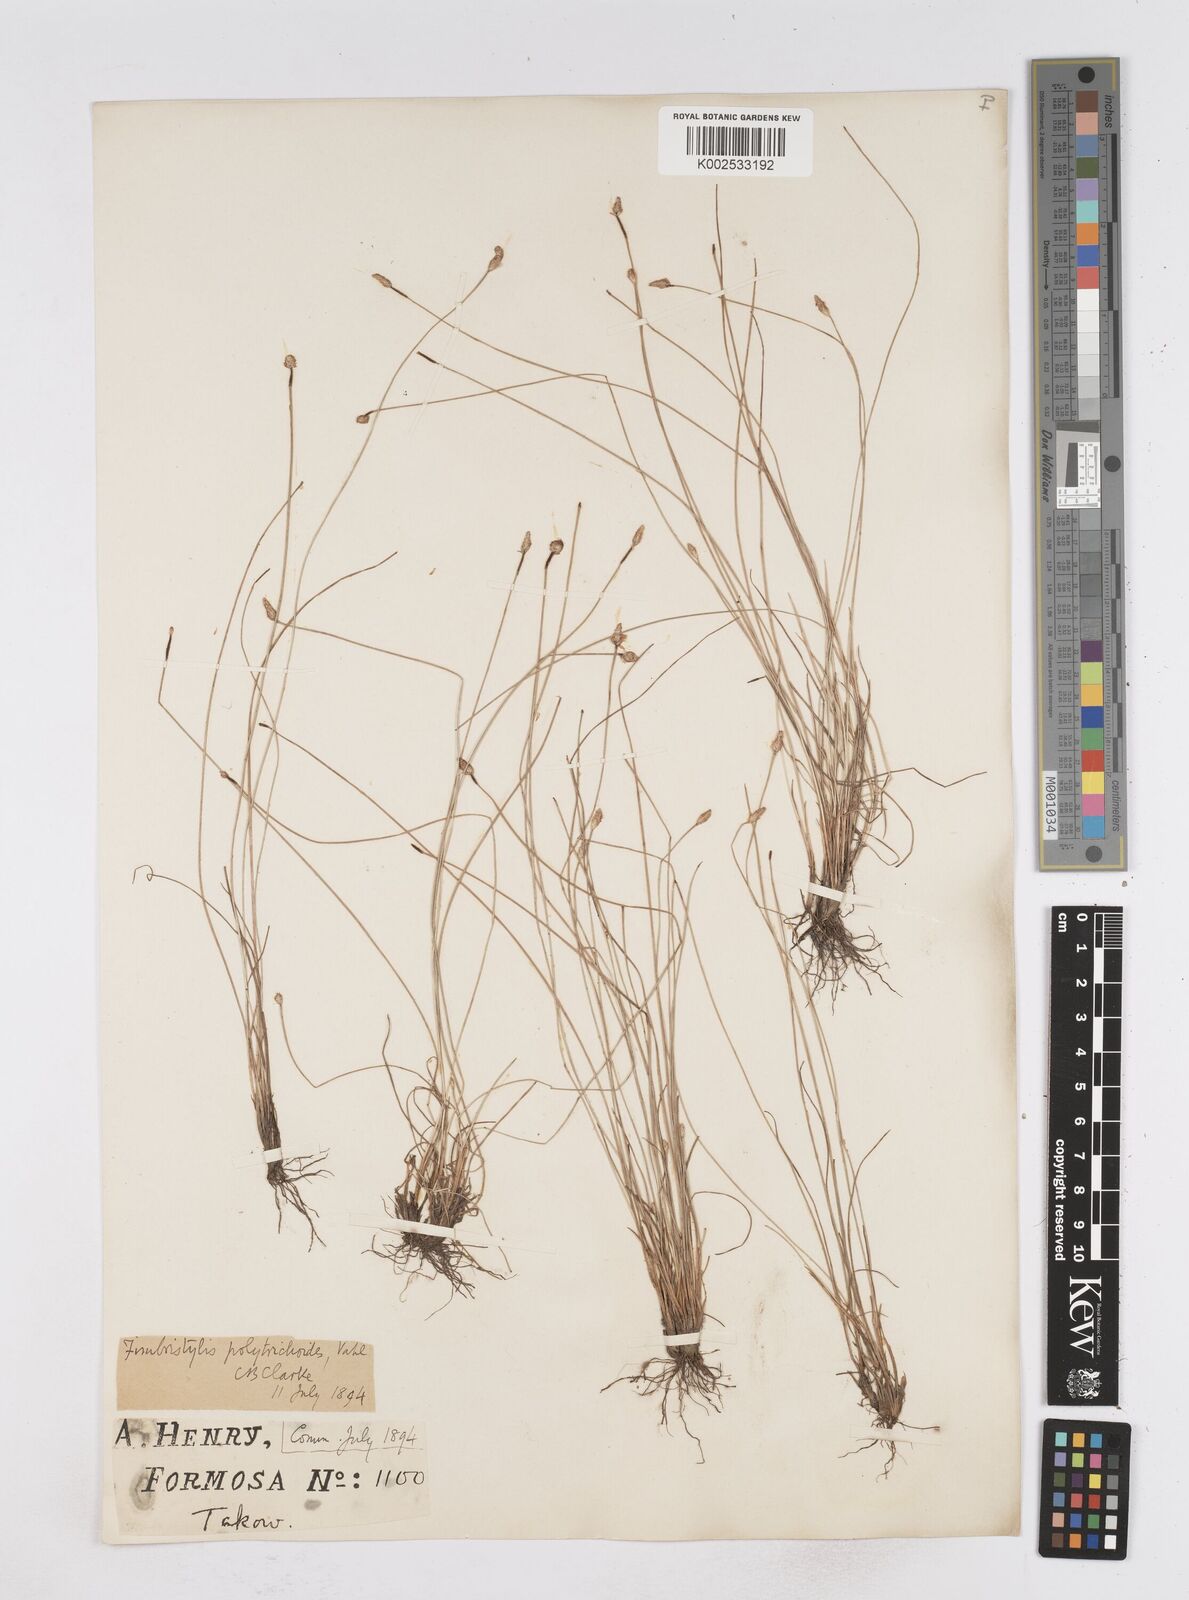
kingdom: Plantae
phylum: Tracheophyta
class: Liliopsida
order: Poales
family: Cyperaceae
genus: Fimbristylis
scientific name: Fimbristylis polytrichoides
